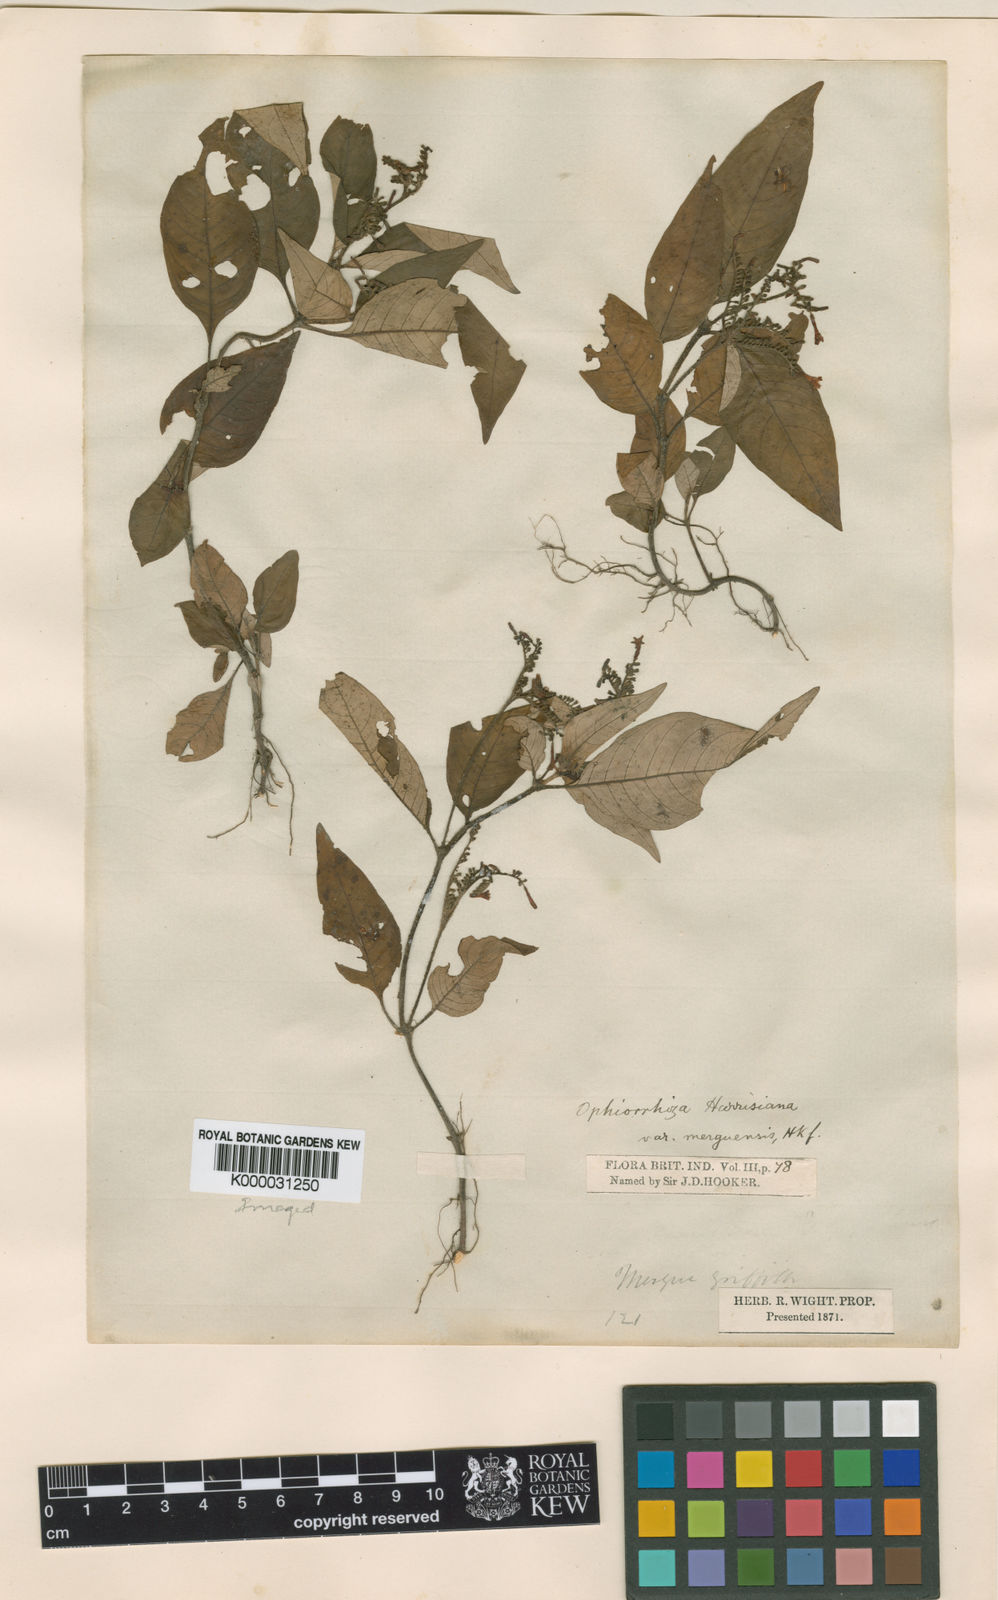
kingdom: Plantae
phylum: Tracheophyta
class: Magnoliopsida
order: Gentianales
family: Rubiaceae
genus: Ophiorrhiza
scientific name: Ophiorrhiza rugosa
